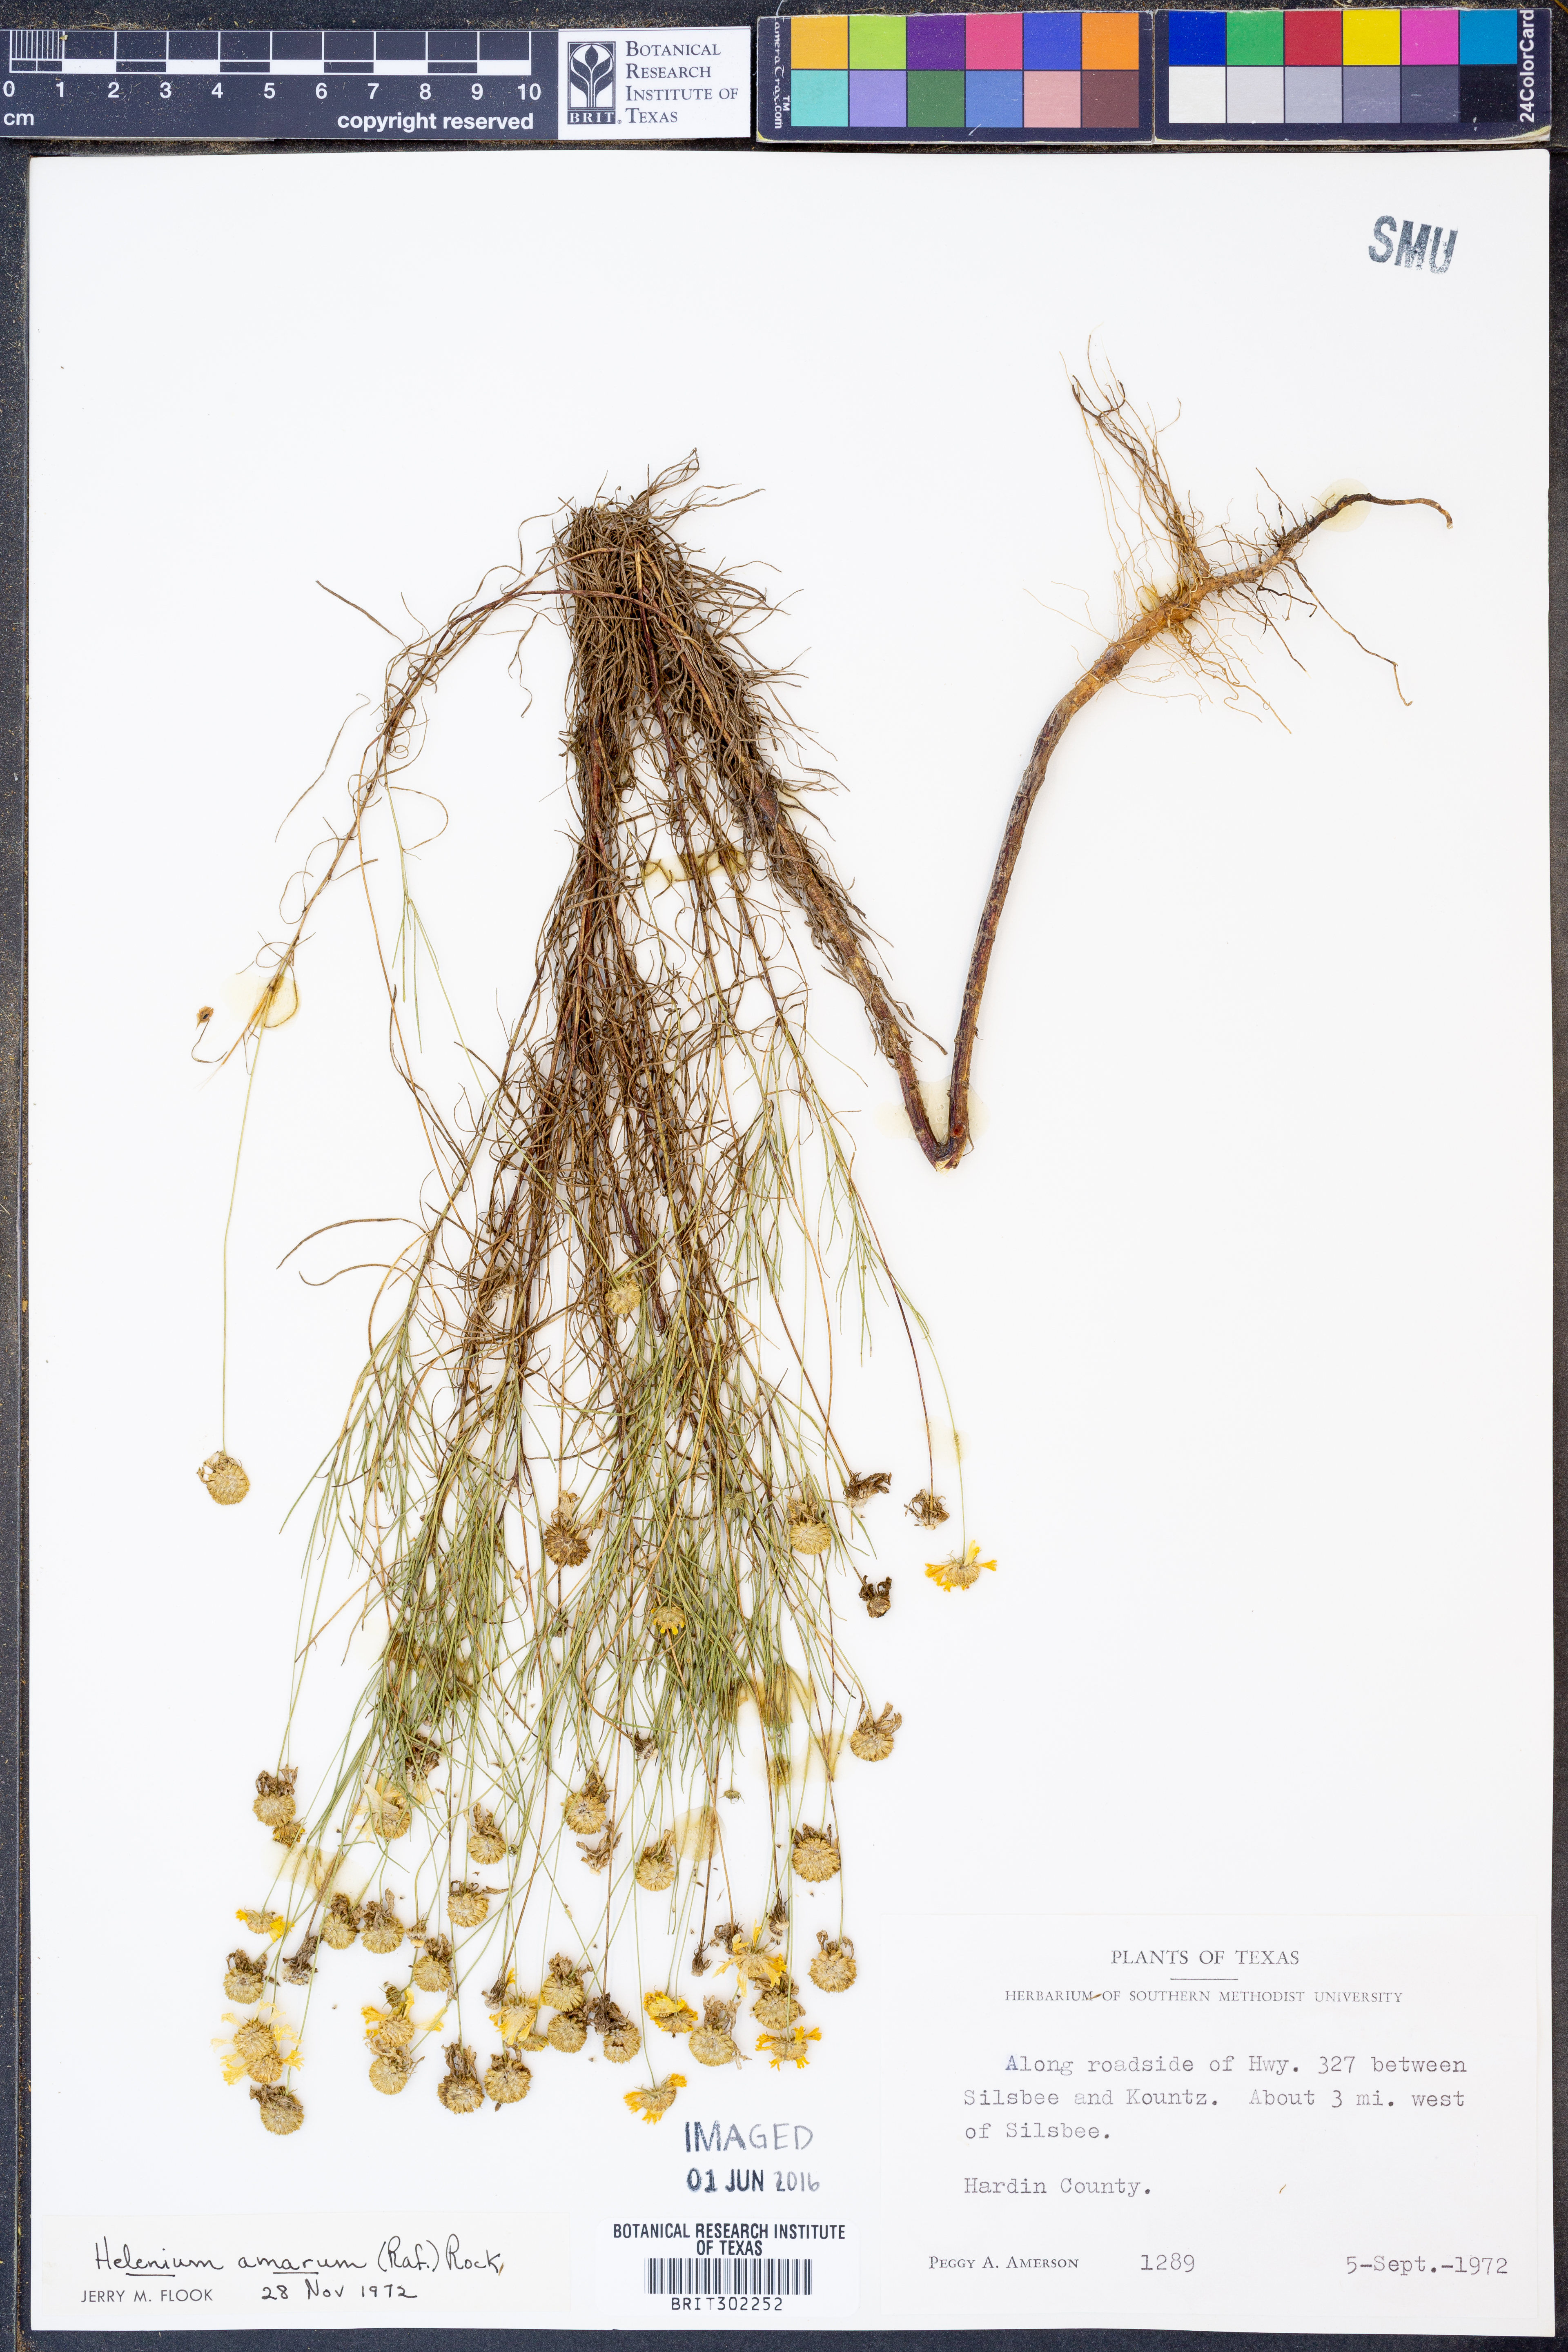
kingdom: Plantae
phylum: Tracheophyta
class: Magnoliopsida
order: Asterales
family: Asteraceae
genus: Helenium
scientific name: Helenium amarum
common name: Bitter sneezeweed
